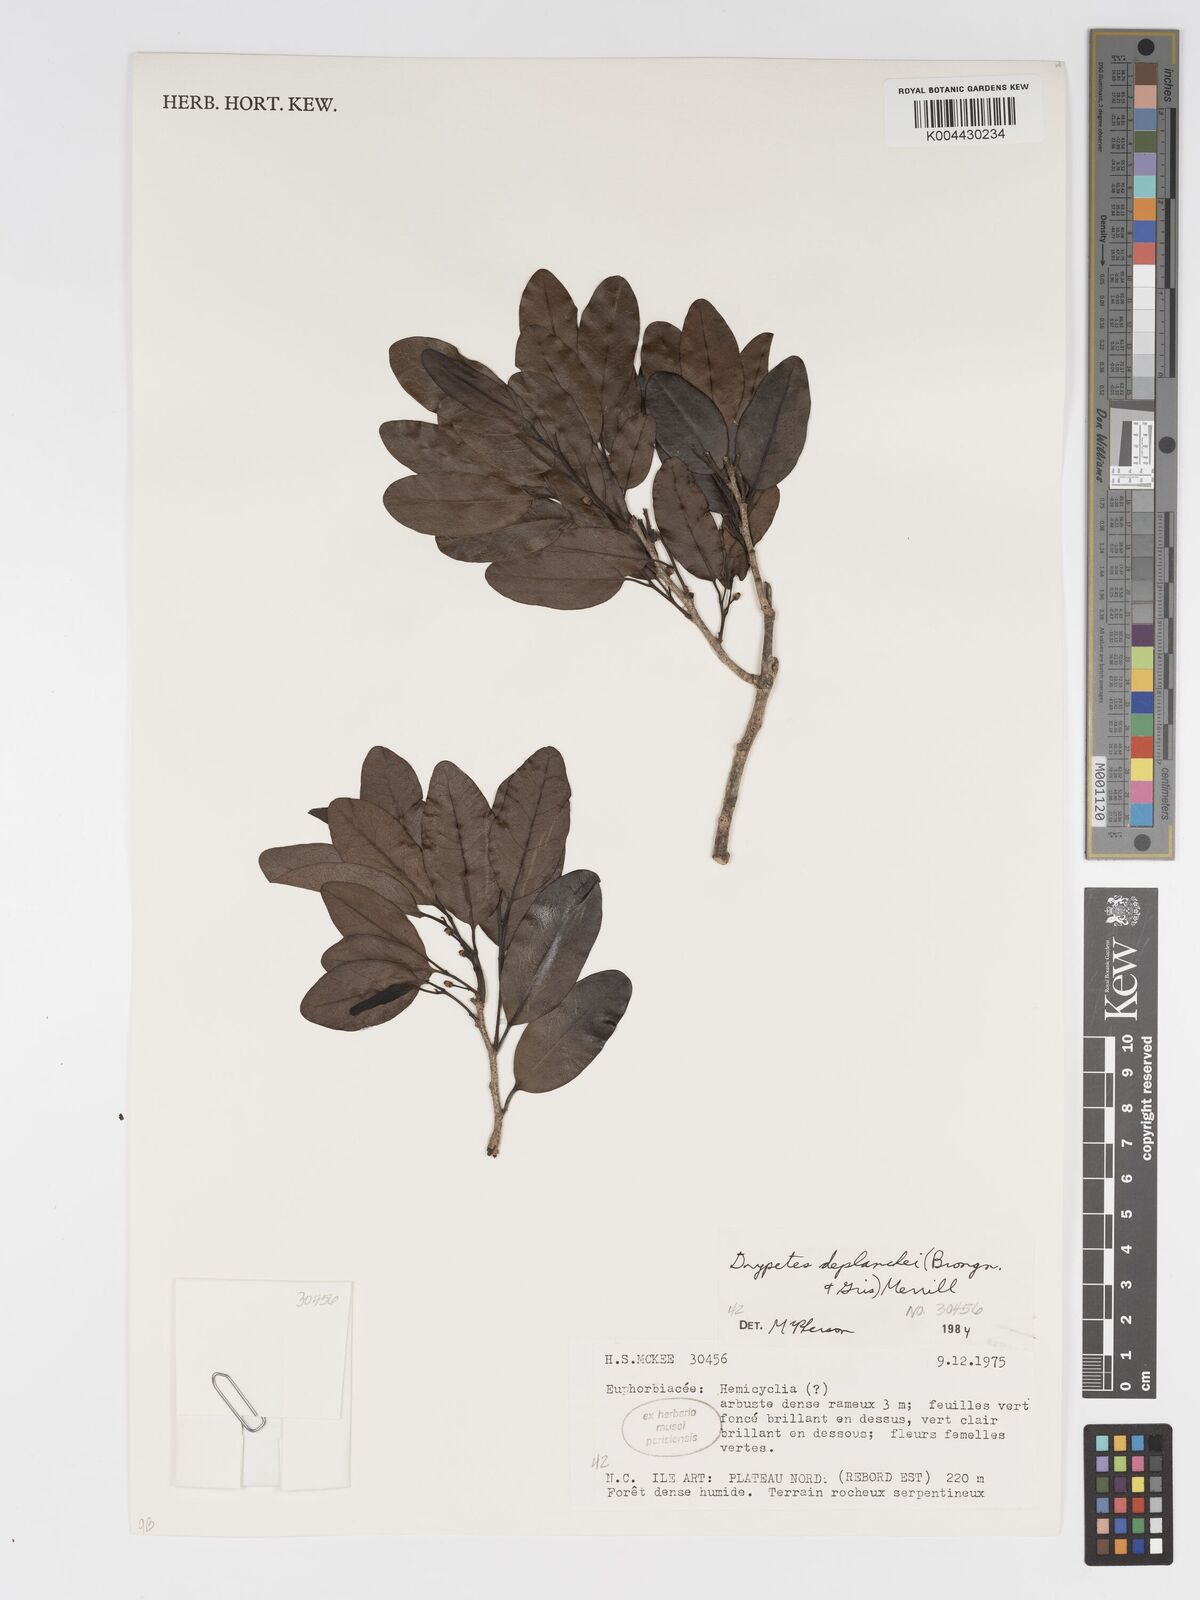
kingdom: Plantae
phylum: Tracheophyta
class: Magnoliopsida
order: Malpighiales
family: Putranjivaceae
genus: Drypetes
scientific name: Drypetes deplanchei
